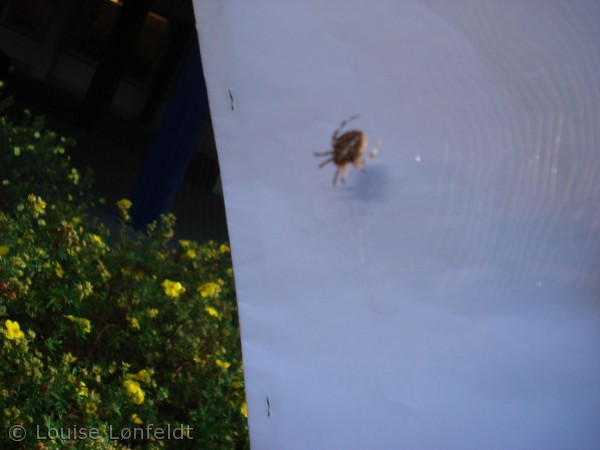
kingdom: Animalia
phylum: Arthropoda
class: Arachnida
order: Araneae
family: Araneidae
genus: Araneus
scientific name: Araneus diadematus
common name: Korsedderkop
